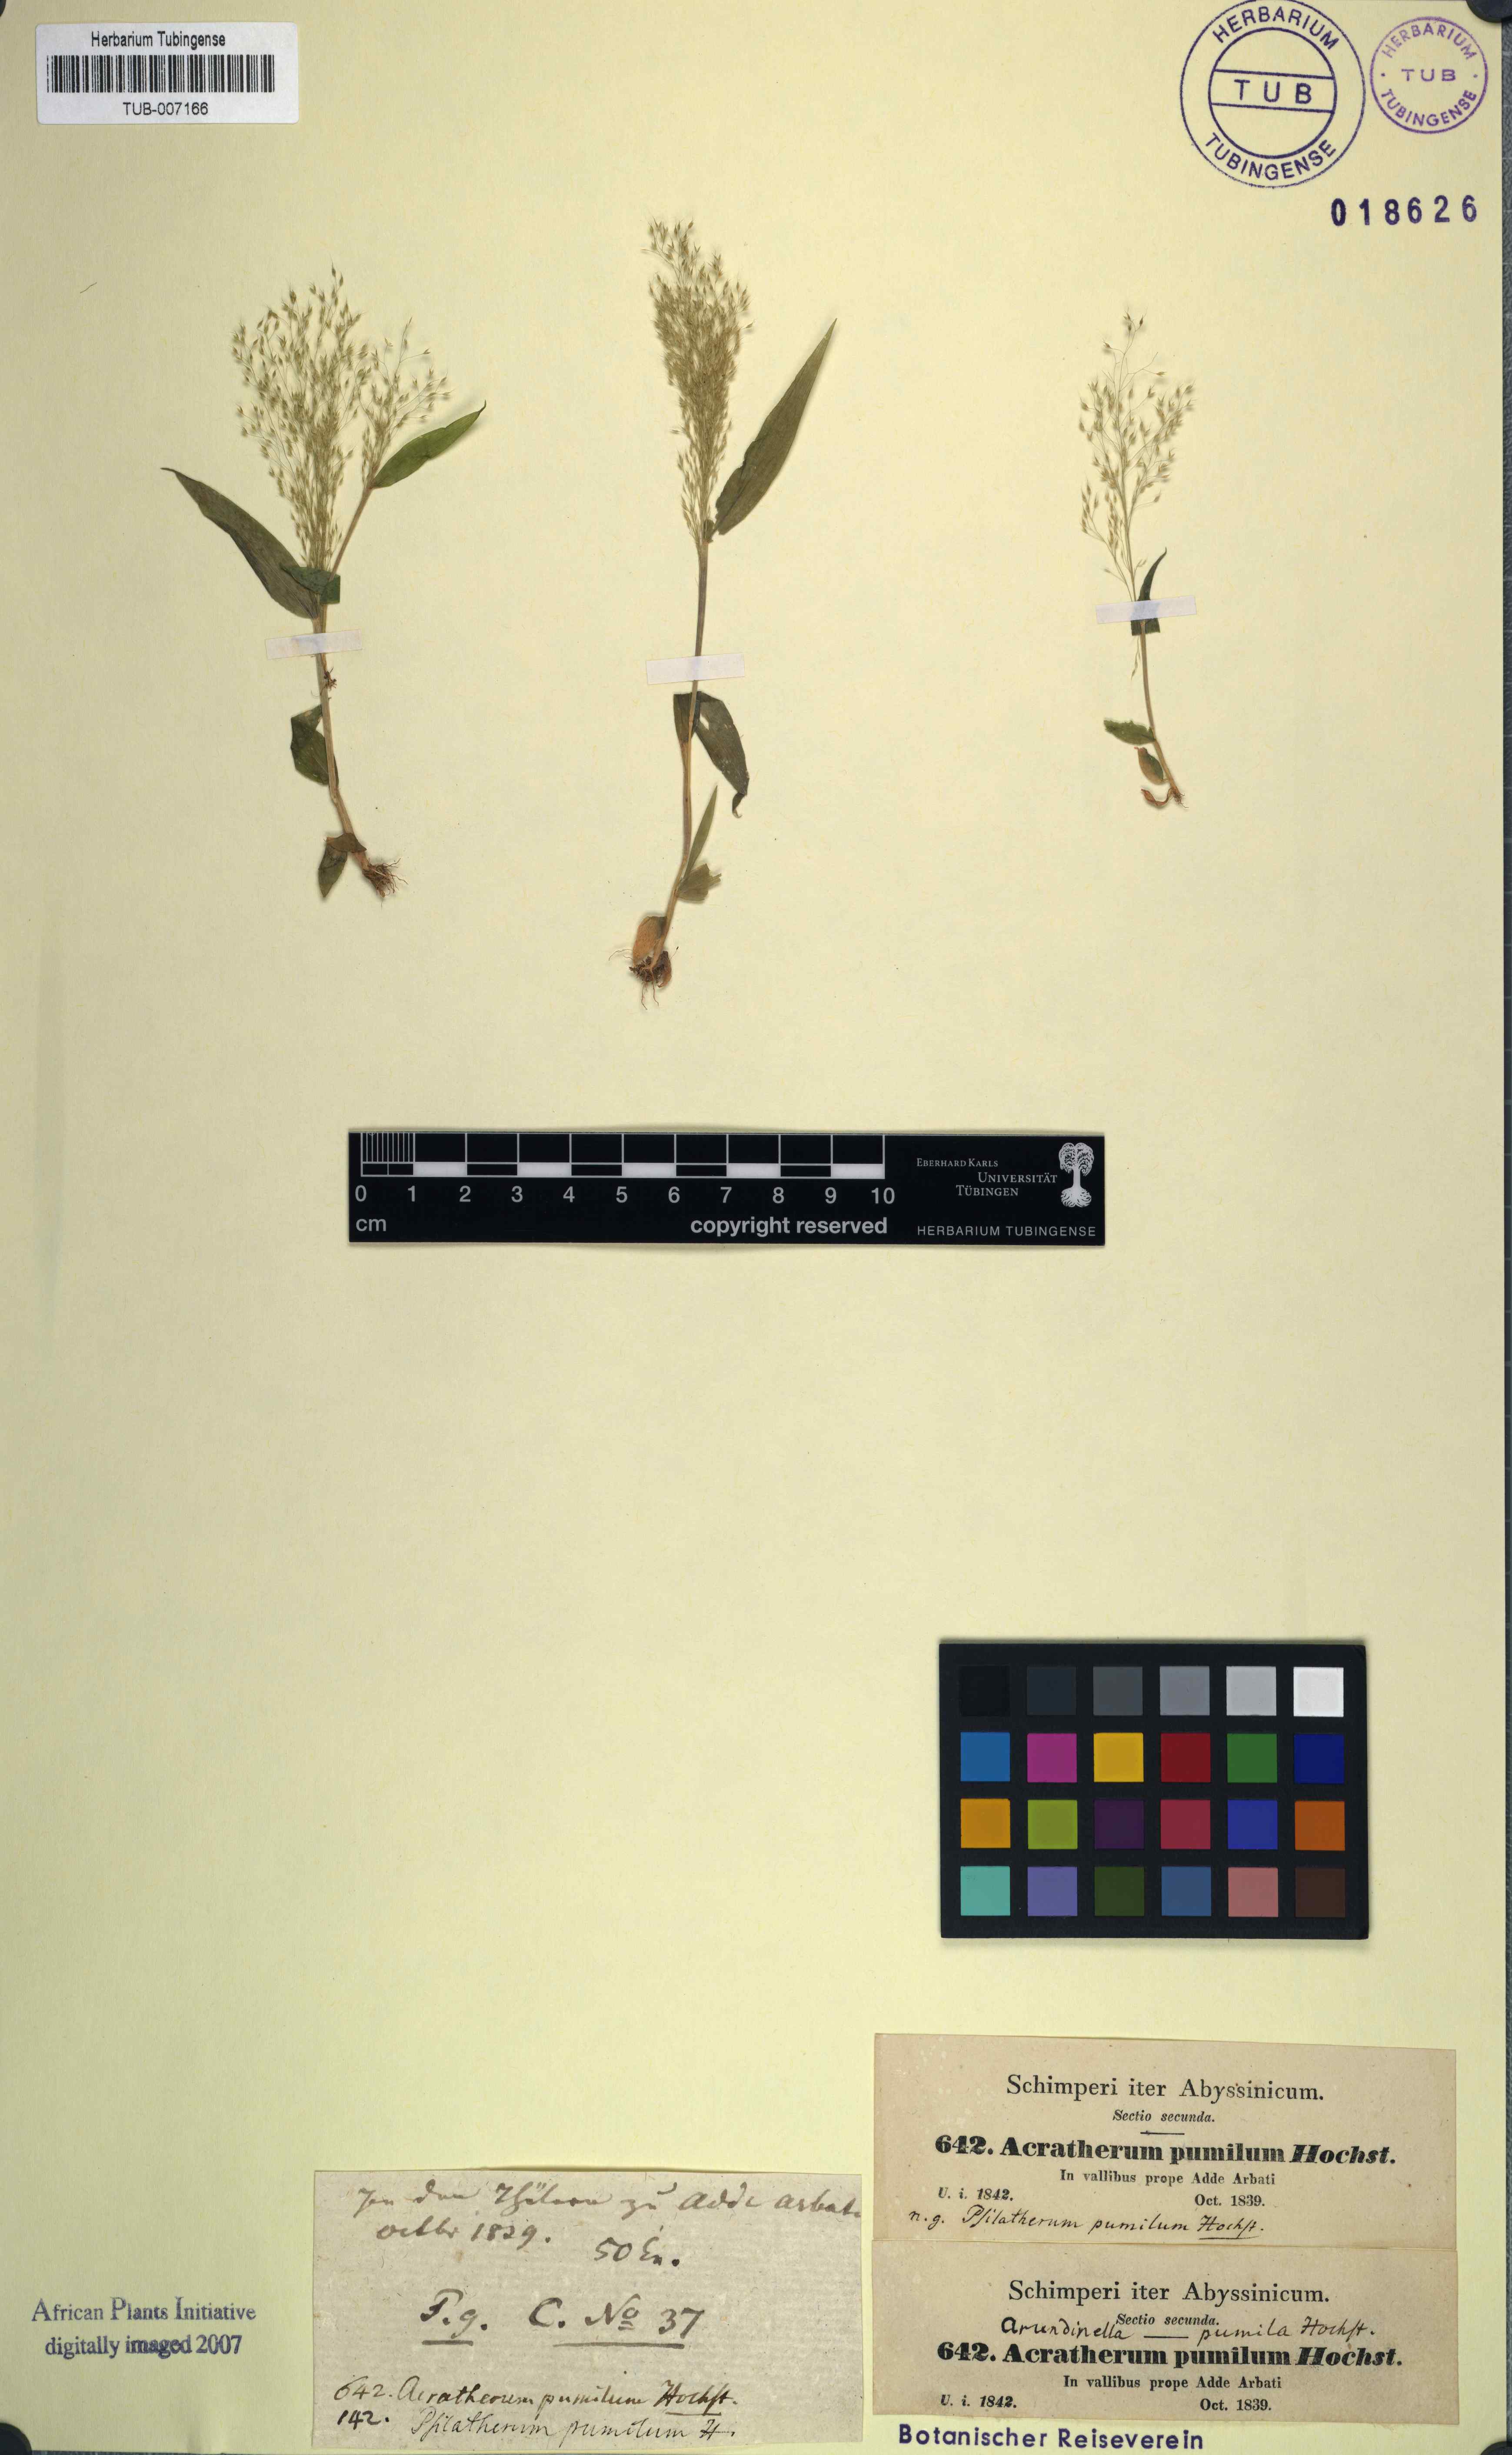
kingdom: Plantae
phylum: Tracheophyta
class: Liliopsida
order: Poales
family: Poaceae
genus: Arundinella
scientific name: Arundinella pumila
